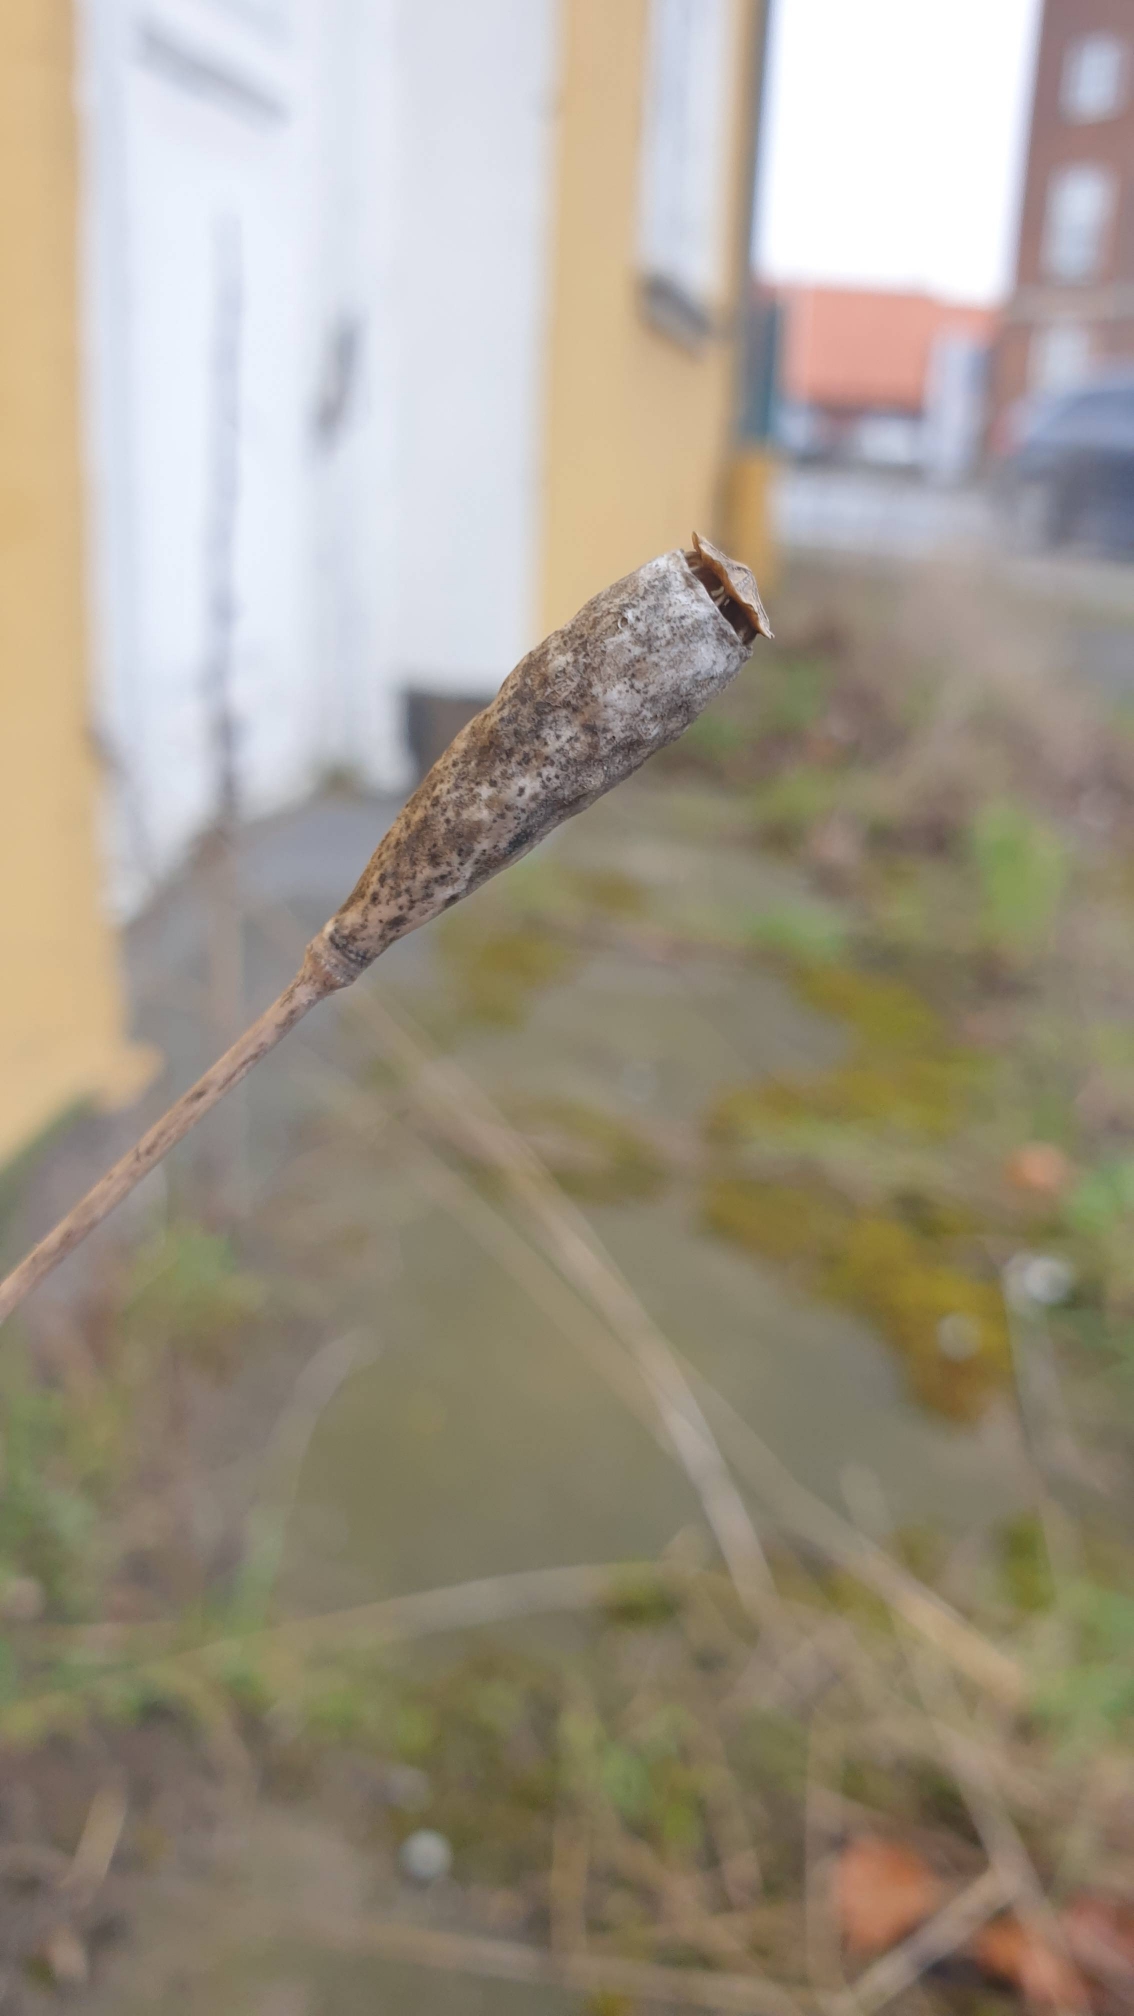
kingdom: Plantae
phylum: Tracheophyta
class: Magnoliopsida
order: Ranunculales
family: Papaveraceae
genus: Papaver
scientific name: Papaver dubium
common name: Gærde-valmue
